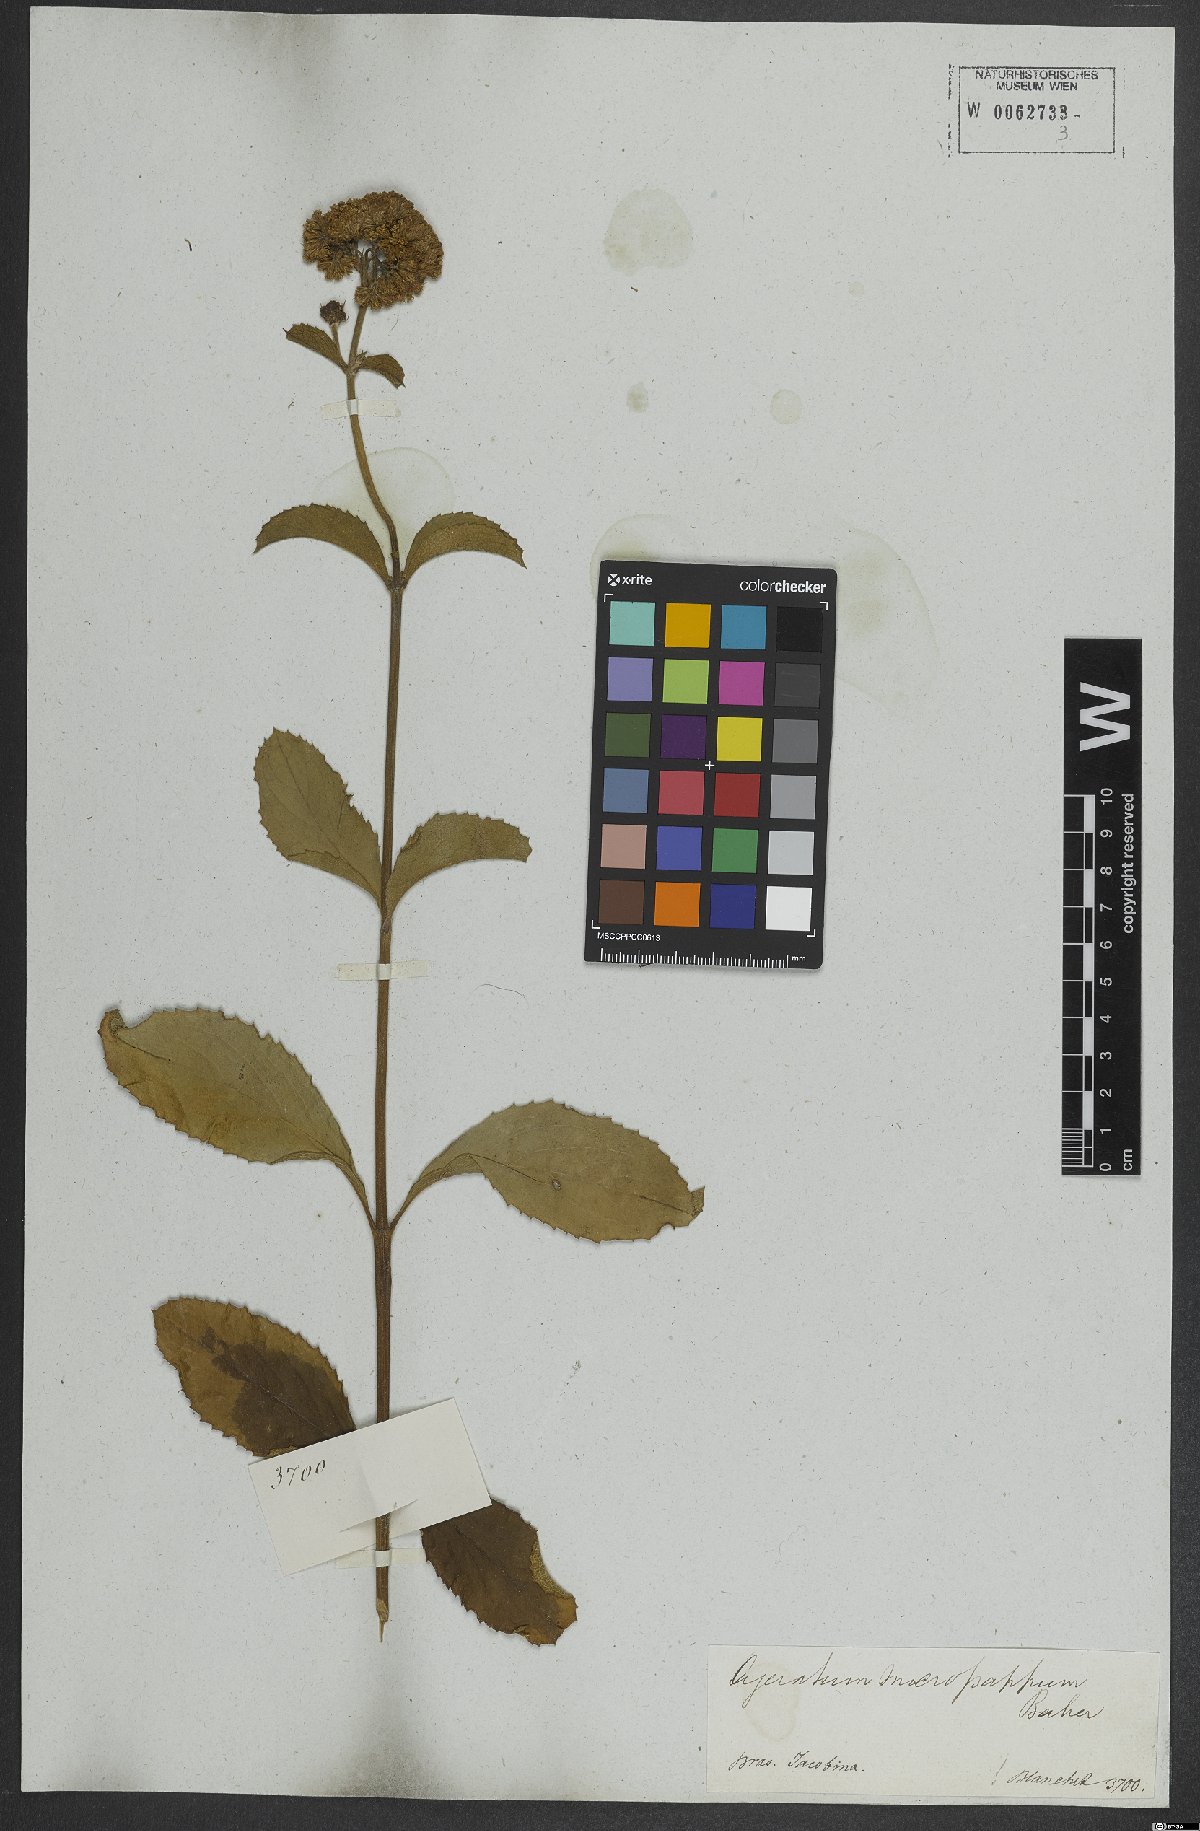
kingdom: Plantae
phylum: Tracheophyta
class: Magnoliopsida
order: Asterales
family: Asteraceae
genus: Acritopappus
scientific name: Acritopappus micropappus
